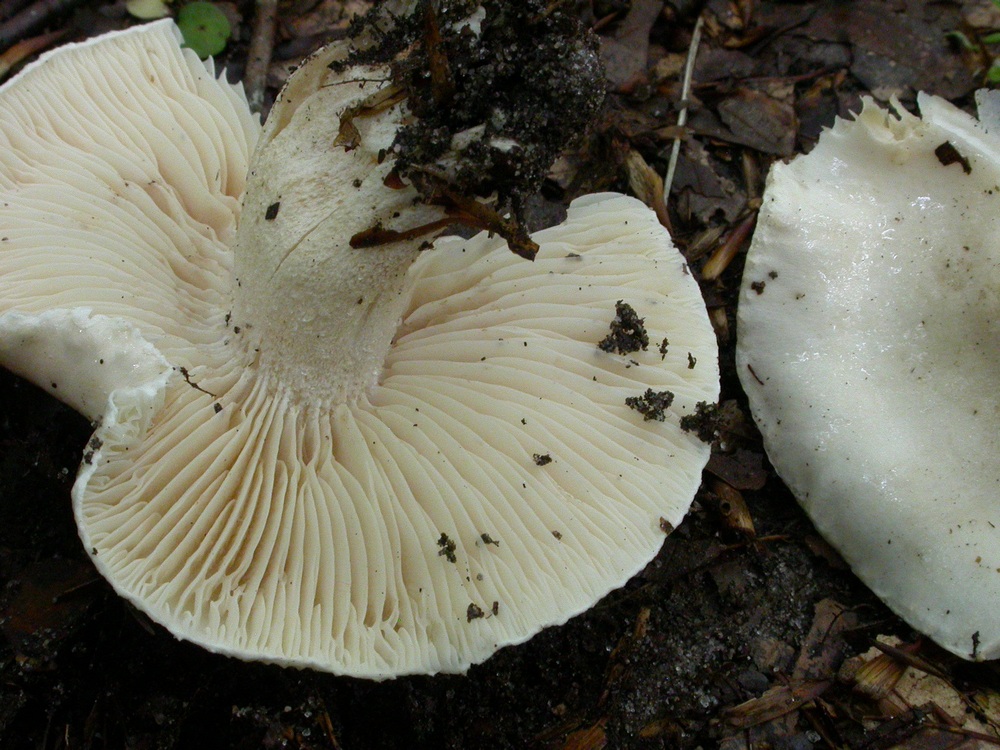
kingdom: Fungi
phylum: Basidiomycota
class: Agaricomycetes
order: Agaricales
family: Hygrophoraceae
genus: Hygrophorus
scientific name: Hygrophorus penarius
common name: spiselig sneglehat
